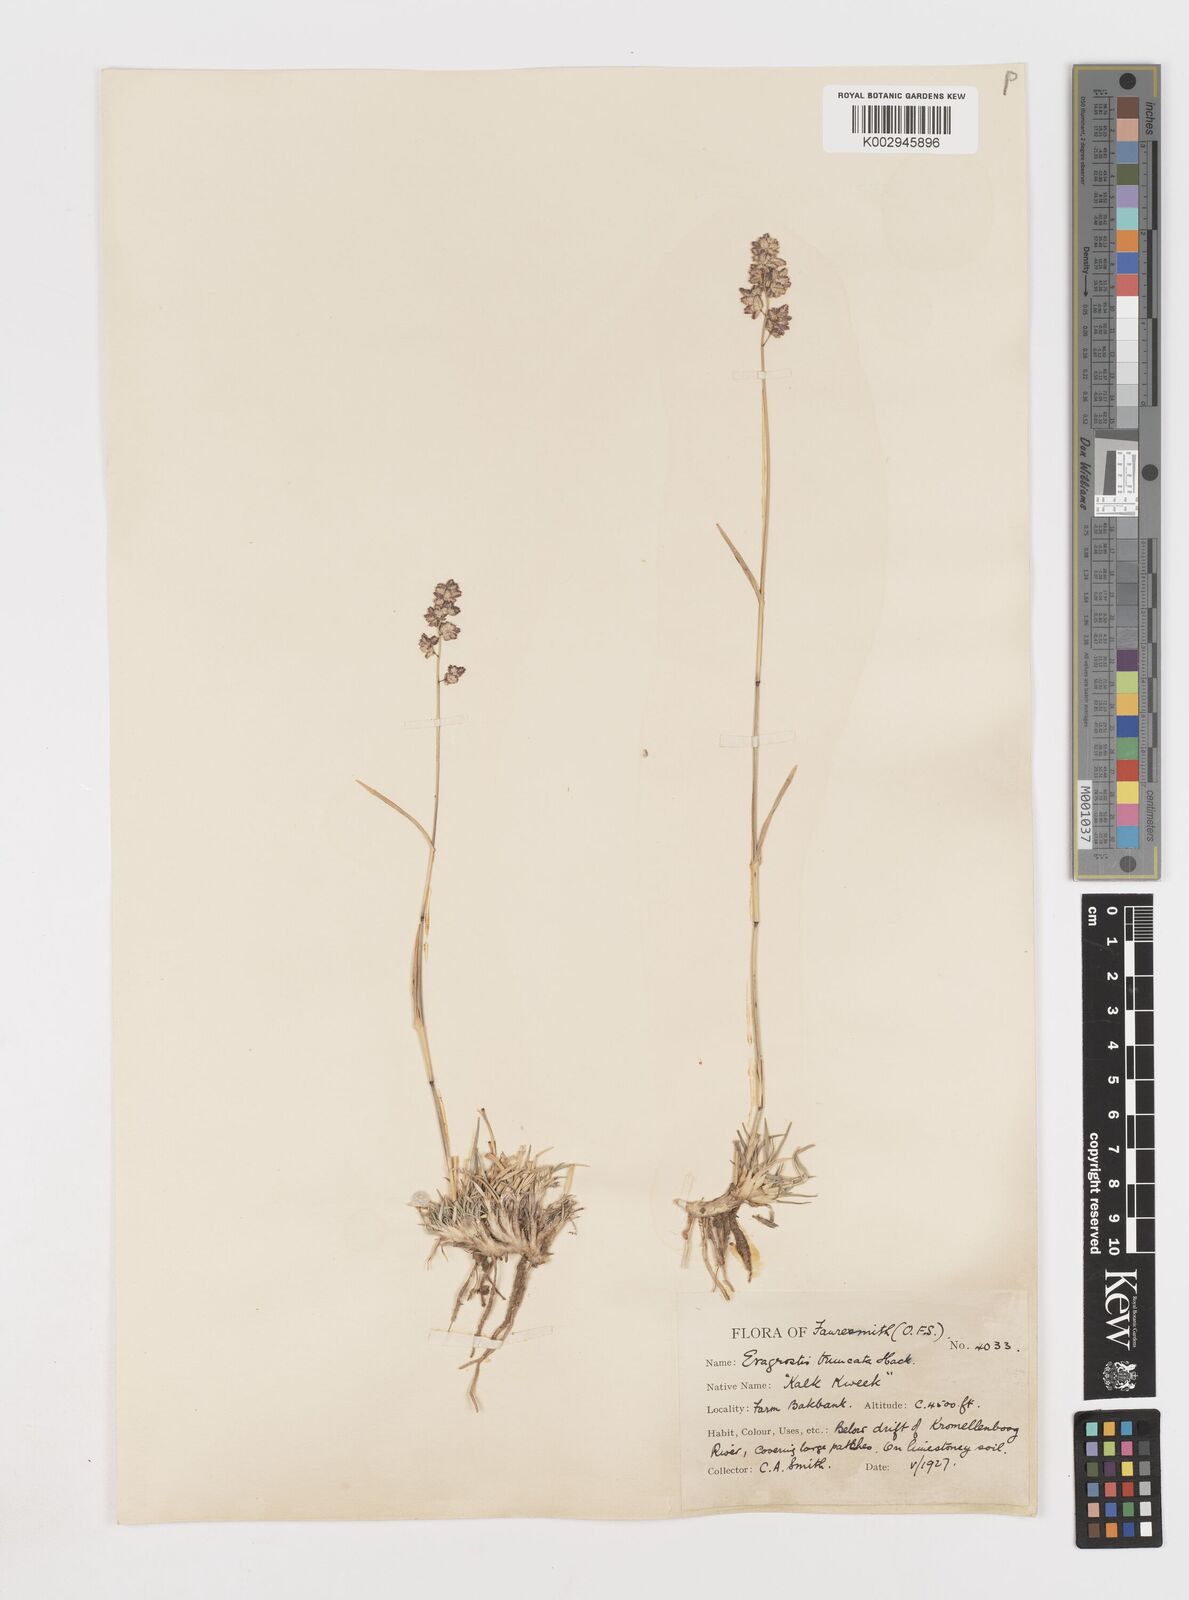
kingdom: Plantae
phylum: Tracheophyta
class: Liliopsida
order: Poales
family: Poaceae
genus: Eragrostis
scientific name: Eragrostis truncata
